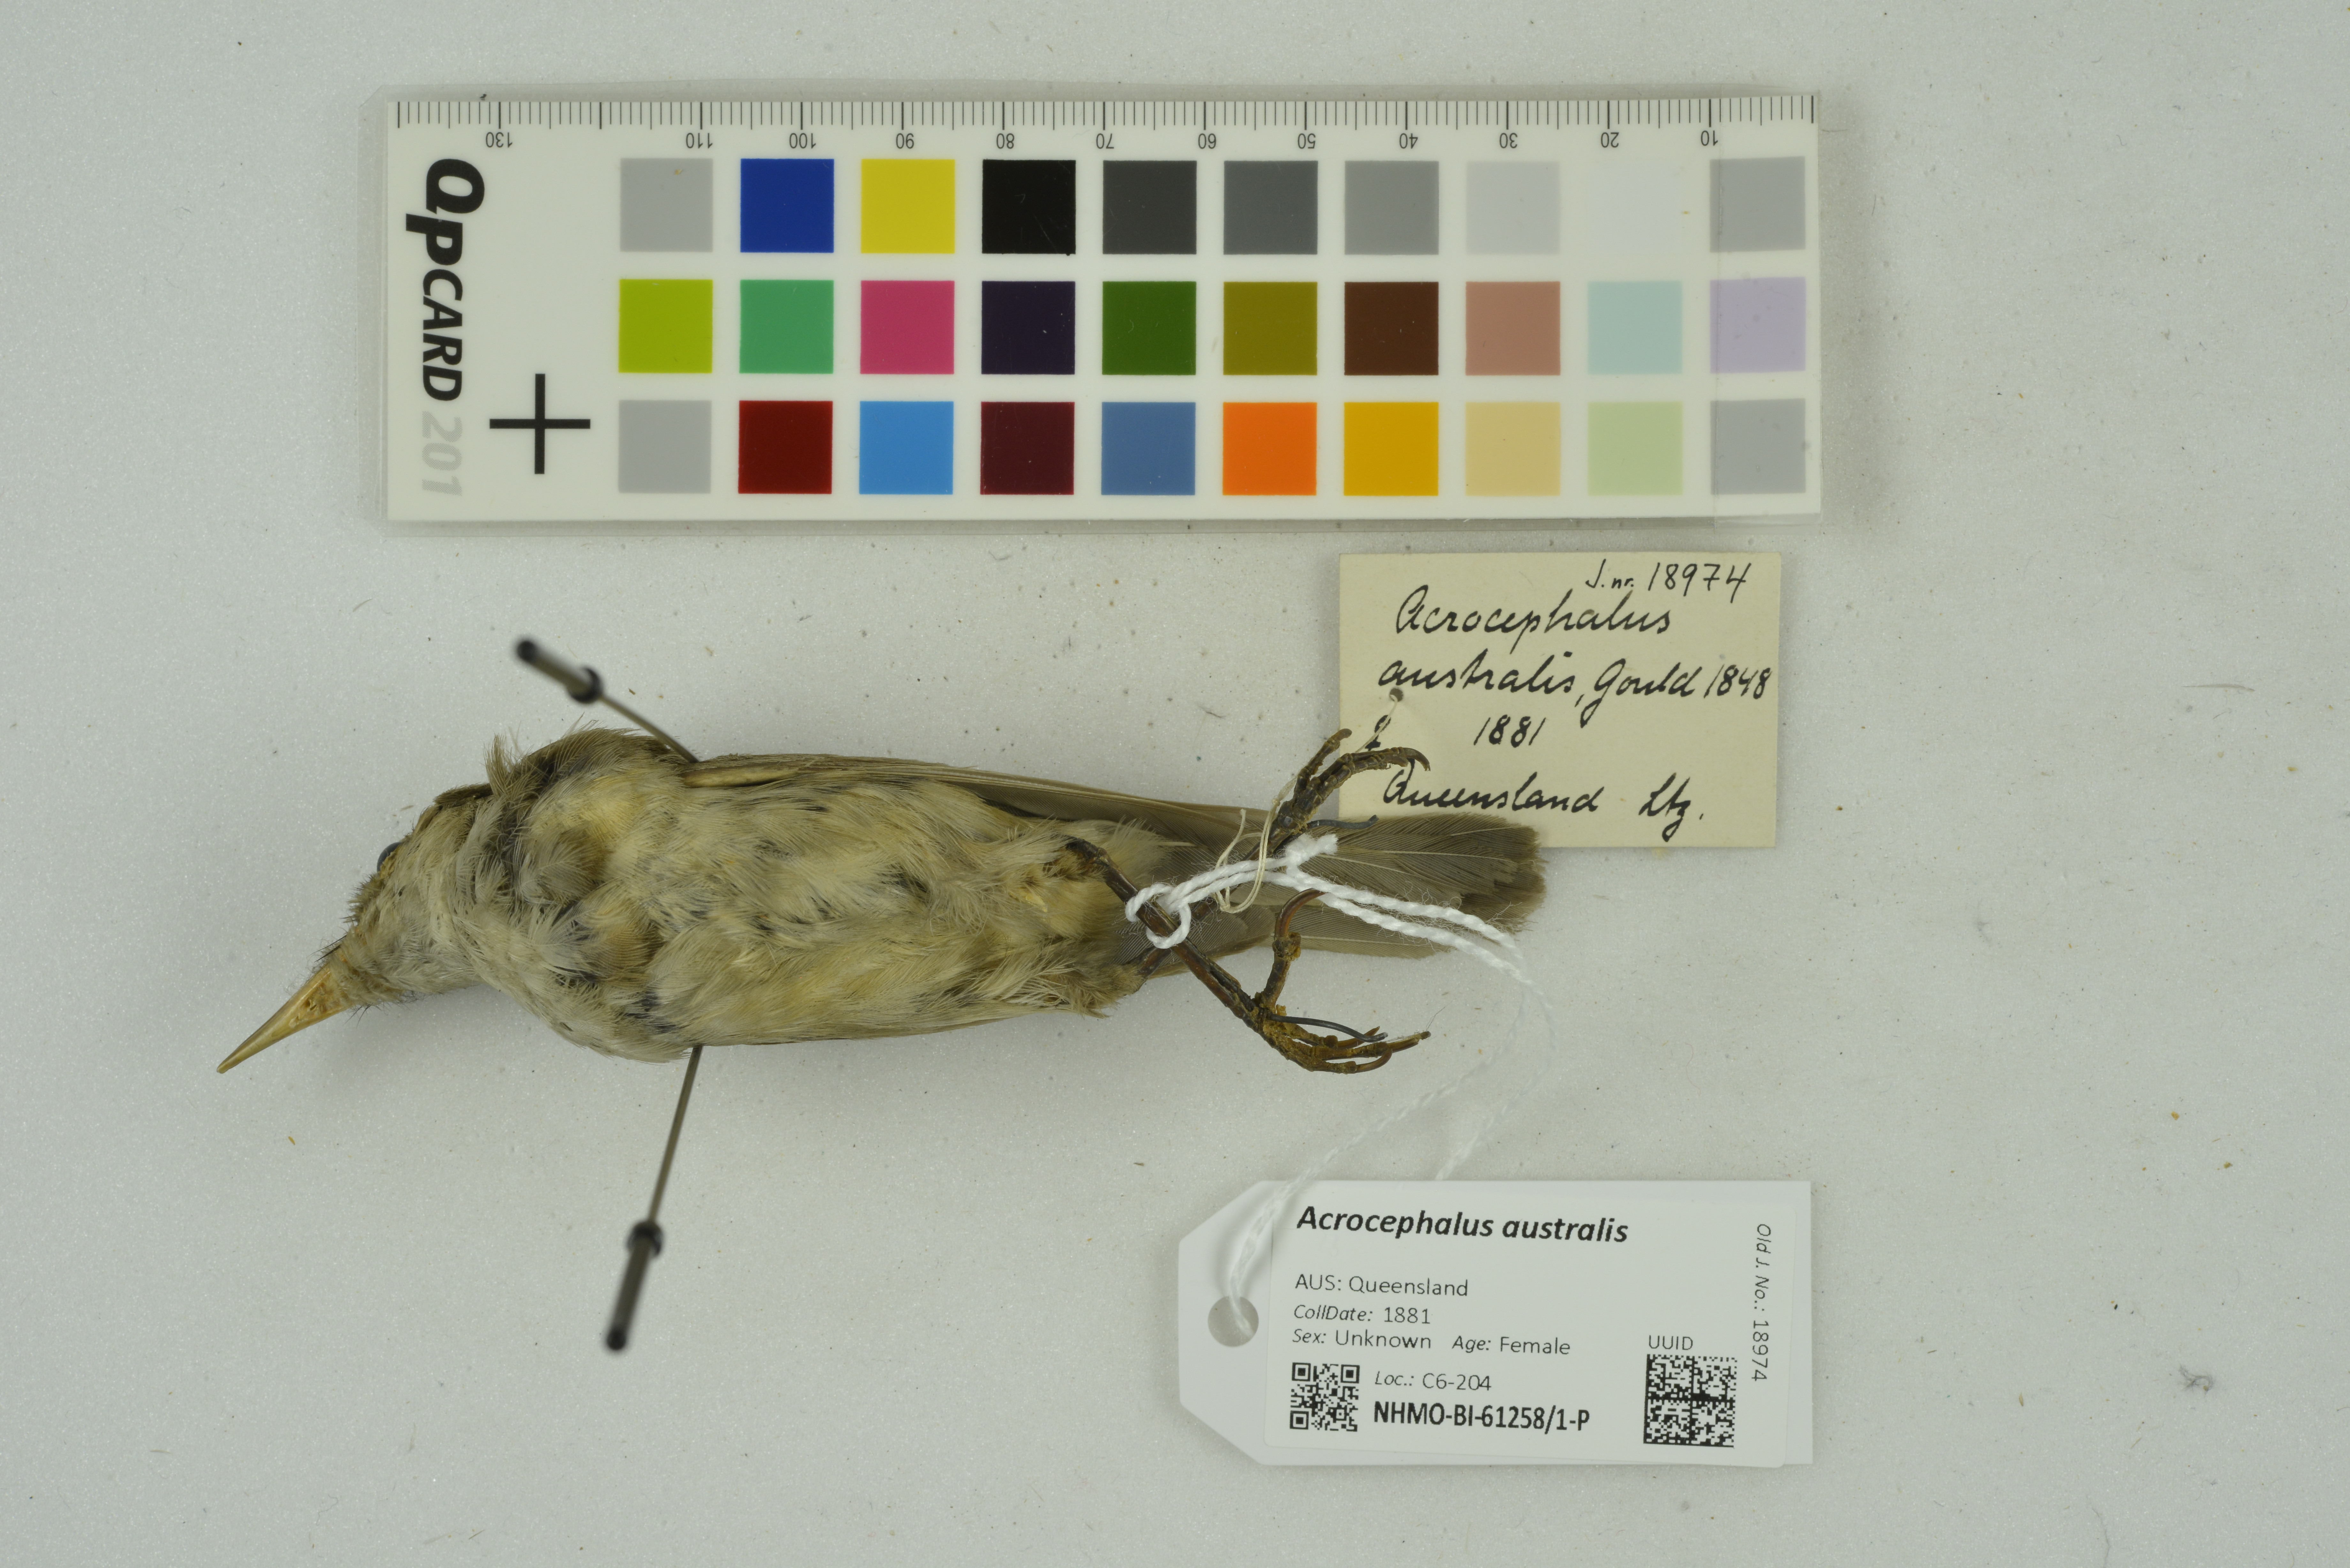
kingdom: Animalia
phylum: Chordata
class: Aves
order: Passeriformes
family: Acrocephalidae
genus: Acrocephalus
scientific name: Acrocephalus australis
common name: Australian reed warbler
